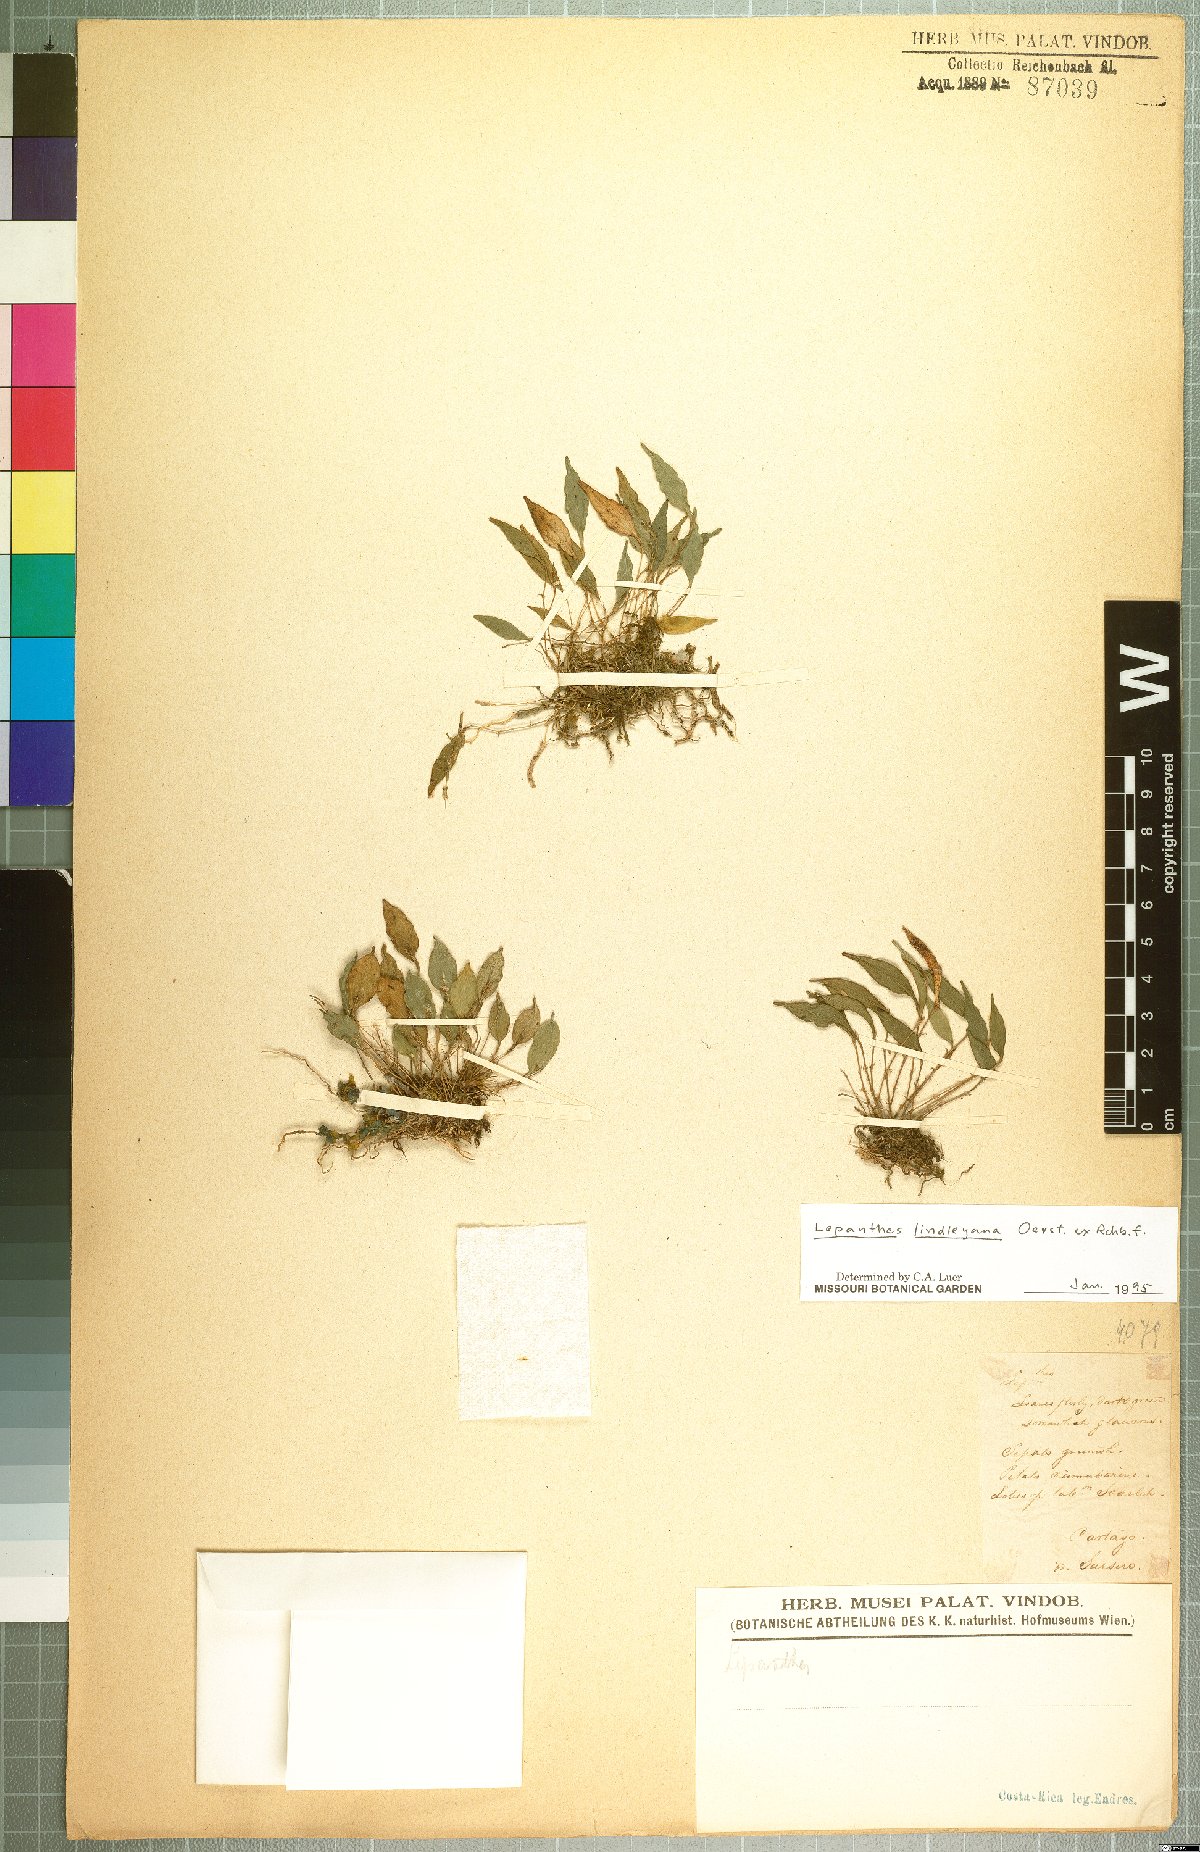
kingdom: Plantae
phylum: Tracheophyta
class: Liliopsida
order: Asparagales
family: Orchidaceae
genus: Lepanthes
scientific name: Lepanthes lindleyana
